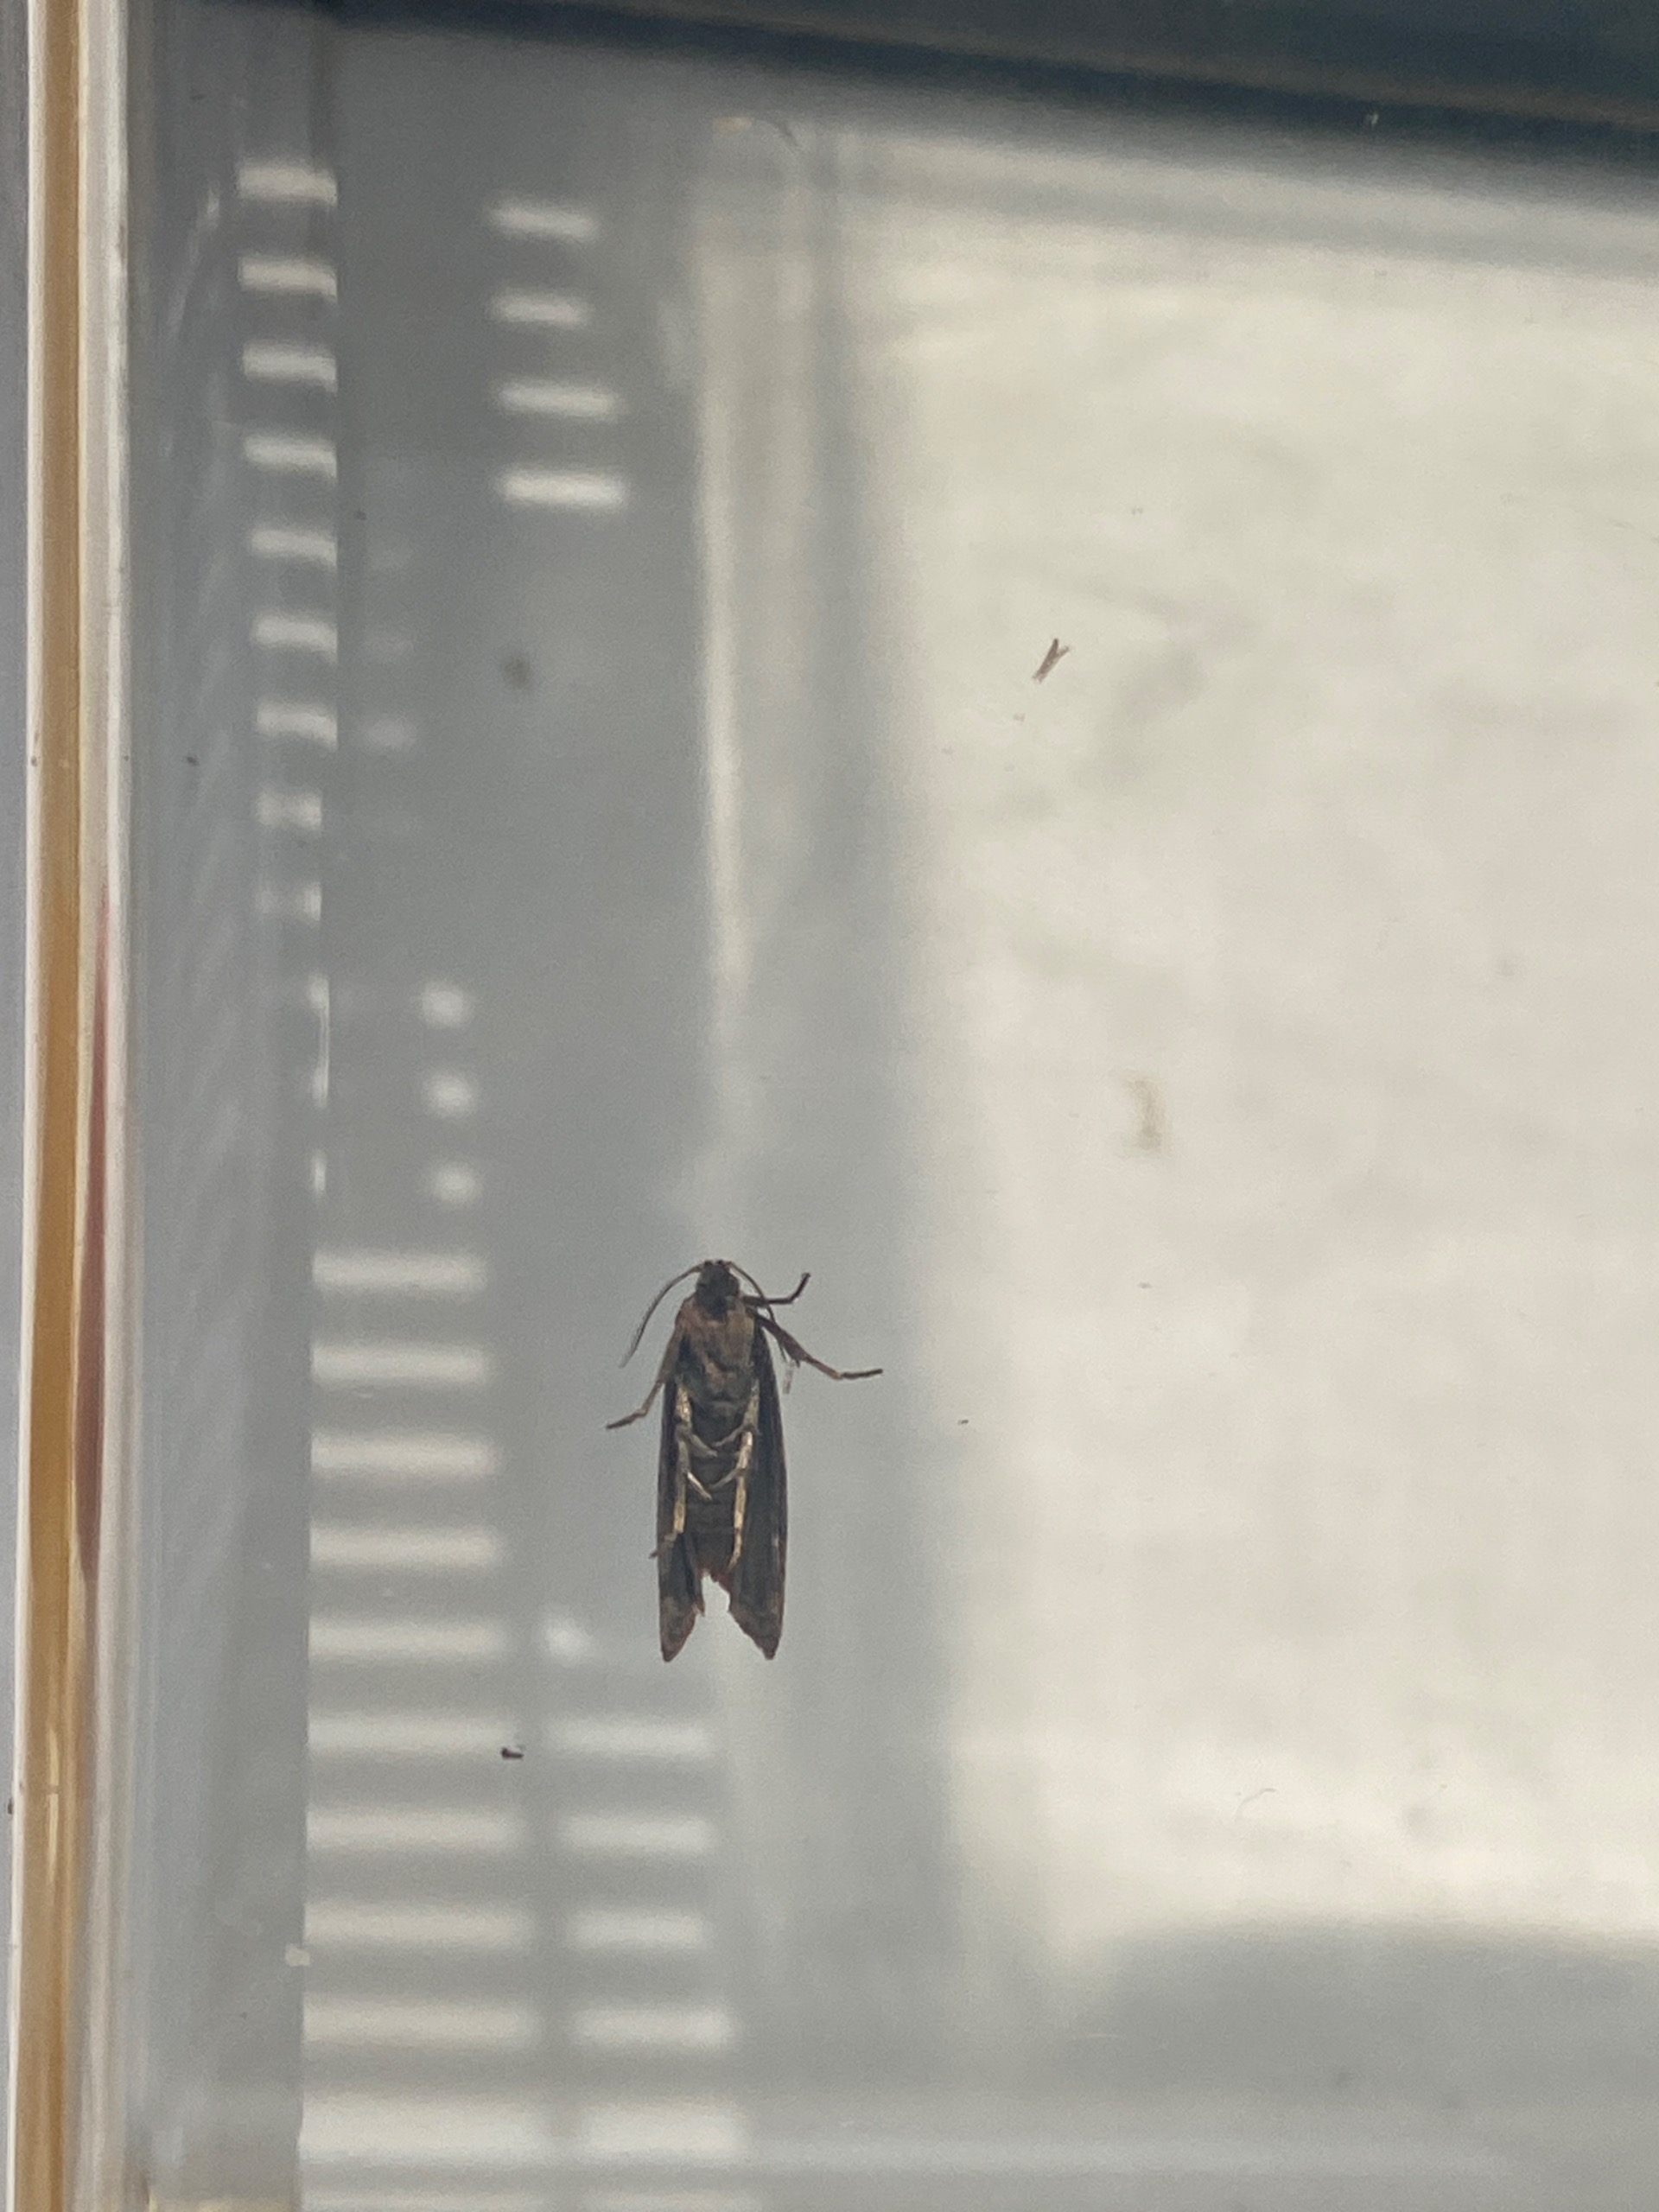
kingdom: Animalia
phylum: Arthropoda
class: Insecta
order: Lepidoptera
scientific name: Lepidoptera
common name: Sommerfugle
